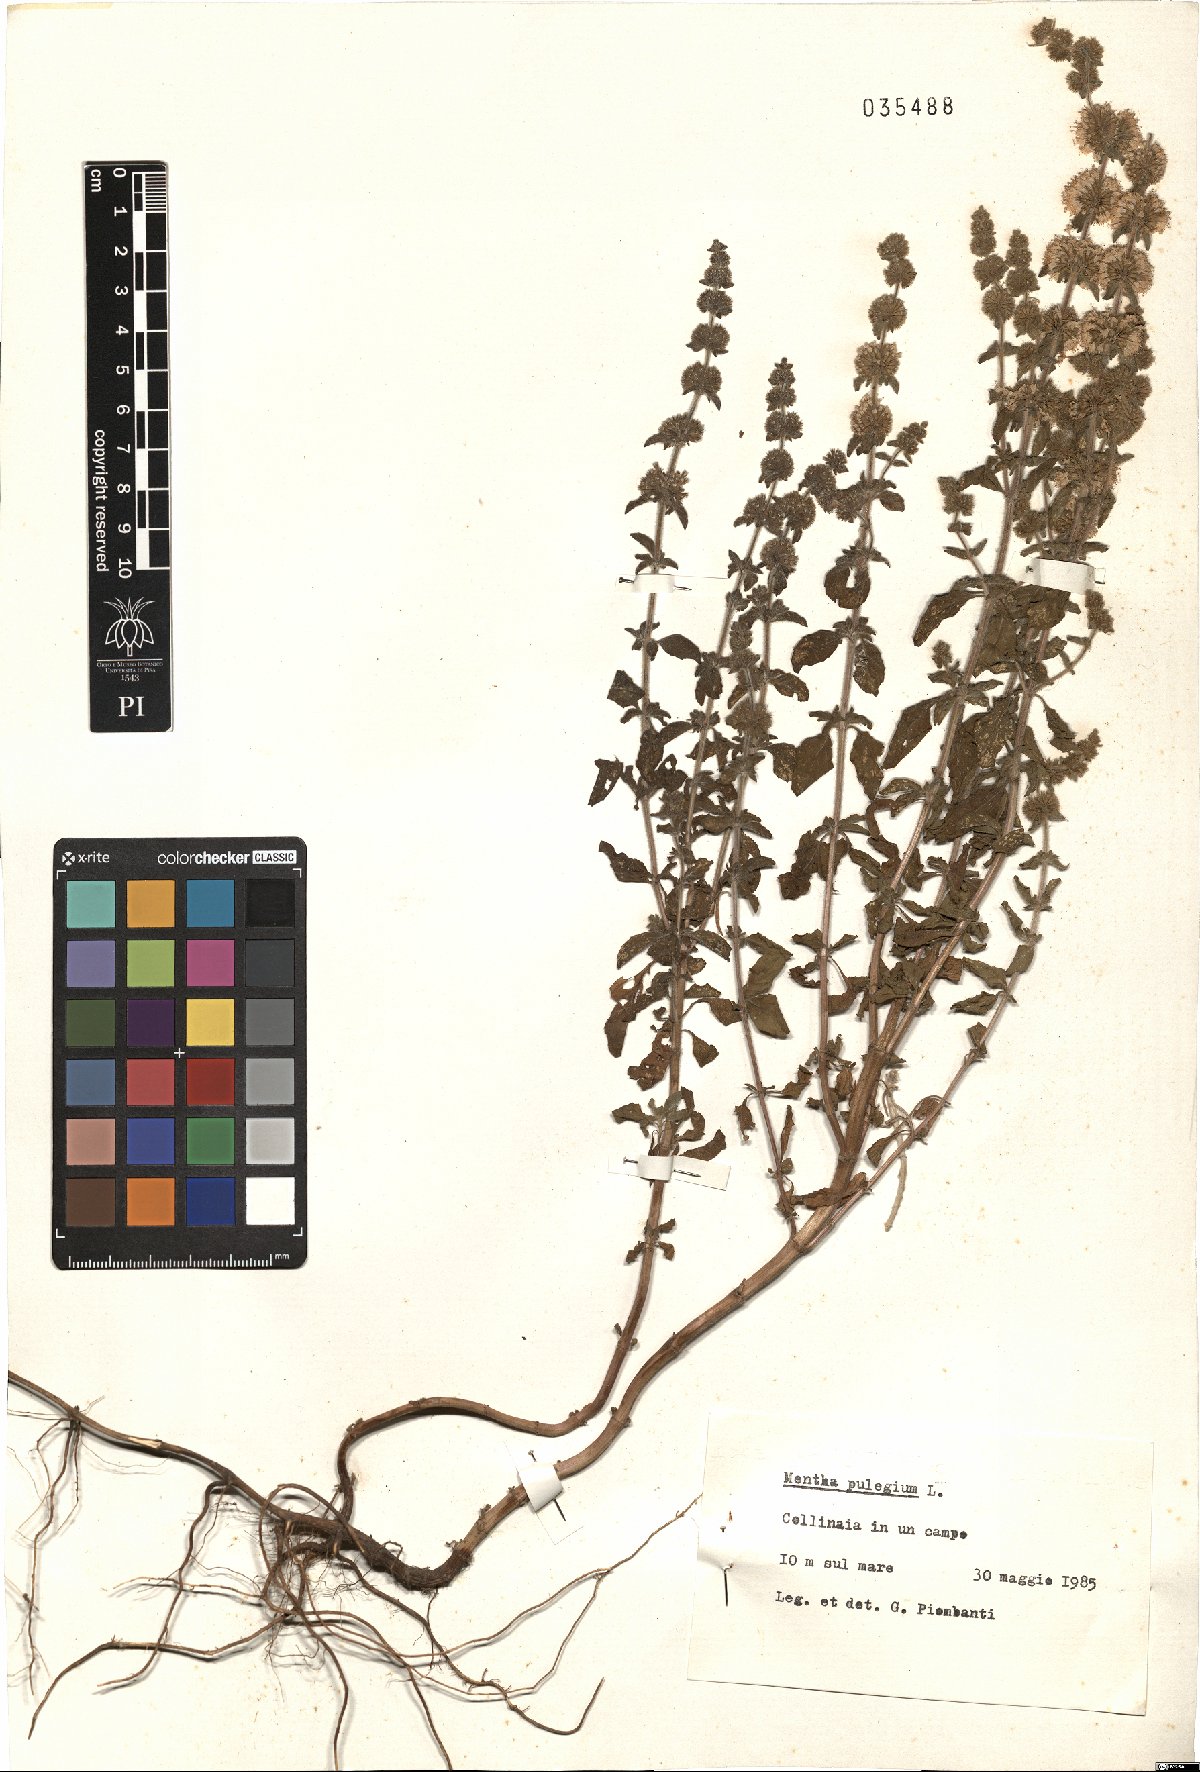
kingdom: Plantae
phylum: Tracheophyta
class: Magnoliopsida
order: Lamiales
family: Lamiaceae
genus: Mentha
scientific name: Mentha pulegium
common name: Pennyroyal
